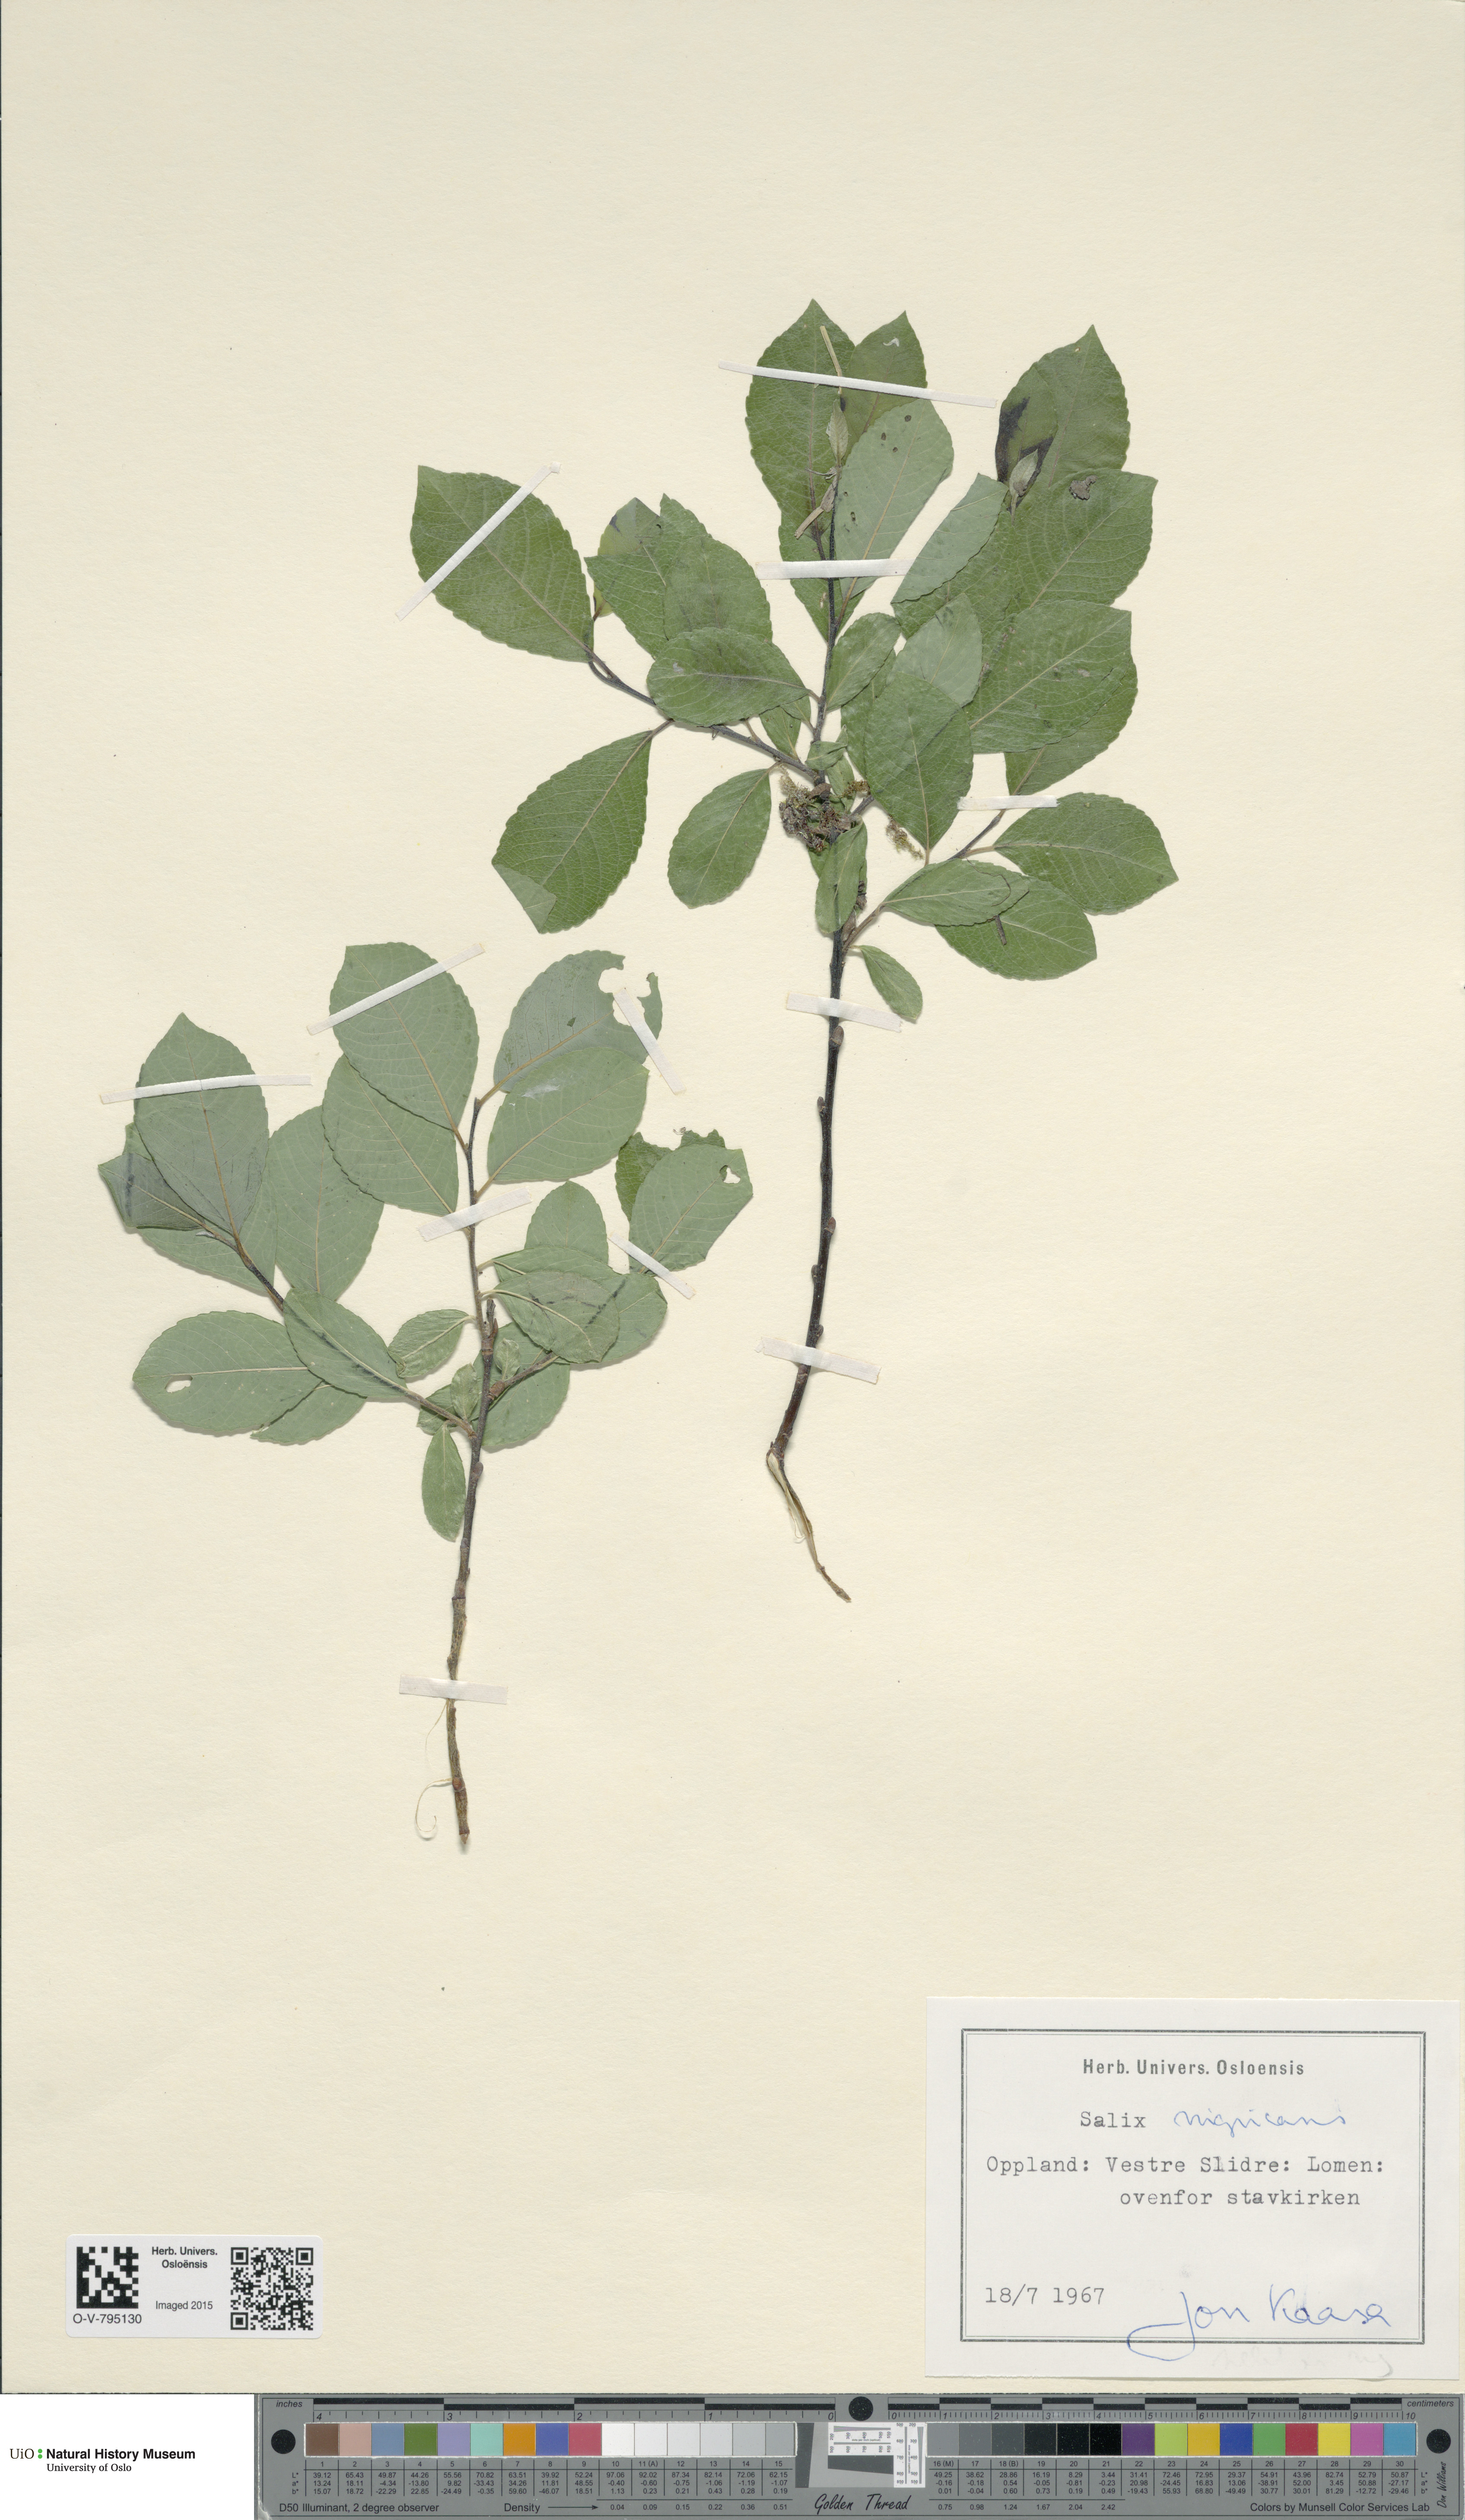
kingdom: Plantae
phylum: Tracheophyta
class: Magnoliopsida
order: Malpighiales
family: Salicaceae
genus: Salix
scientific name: Salix myrsinifolia
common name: Dark-leaved willow
